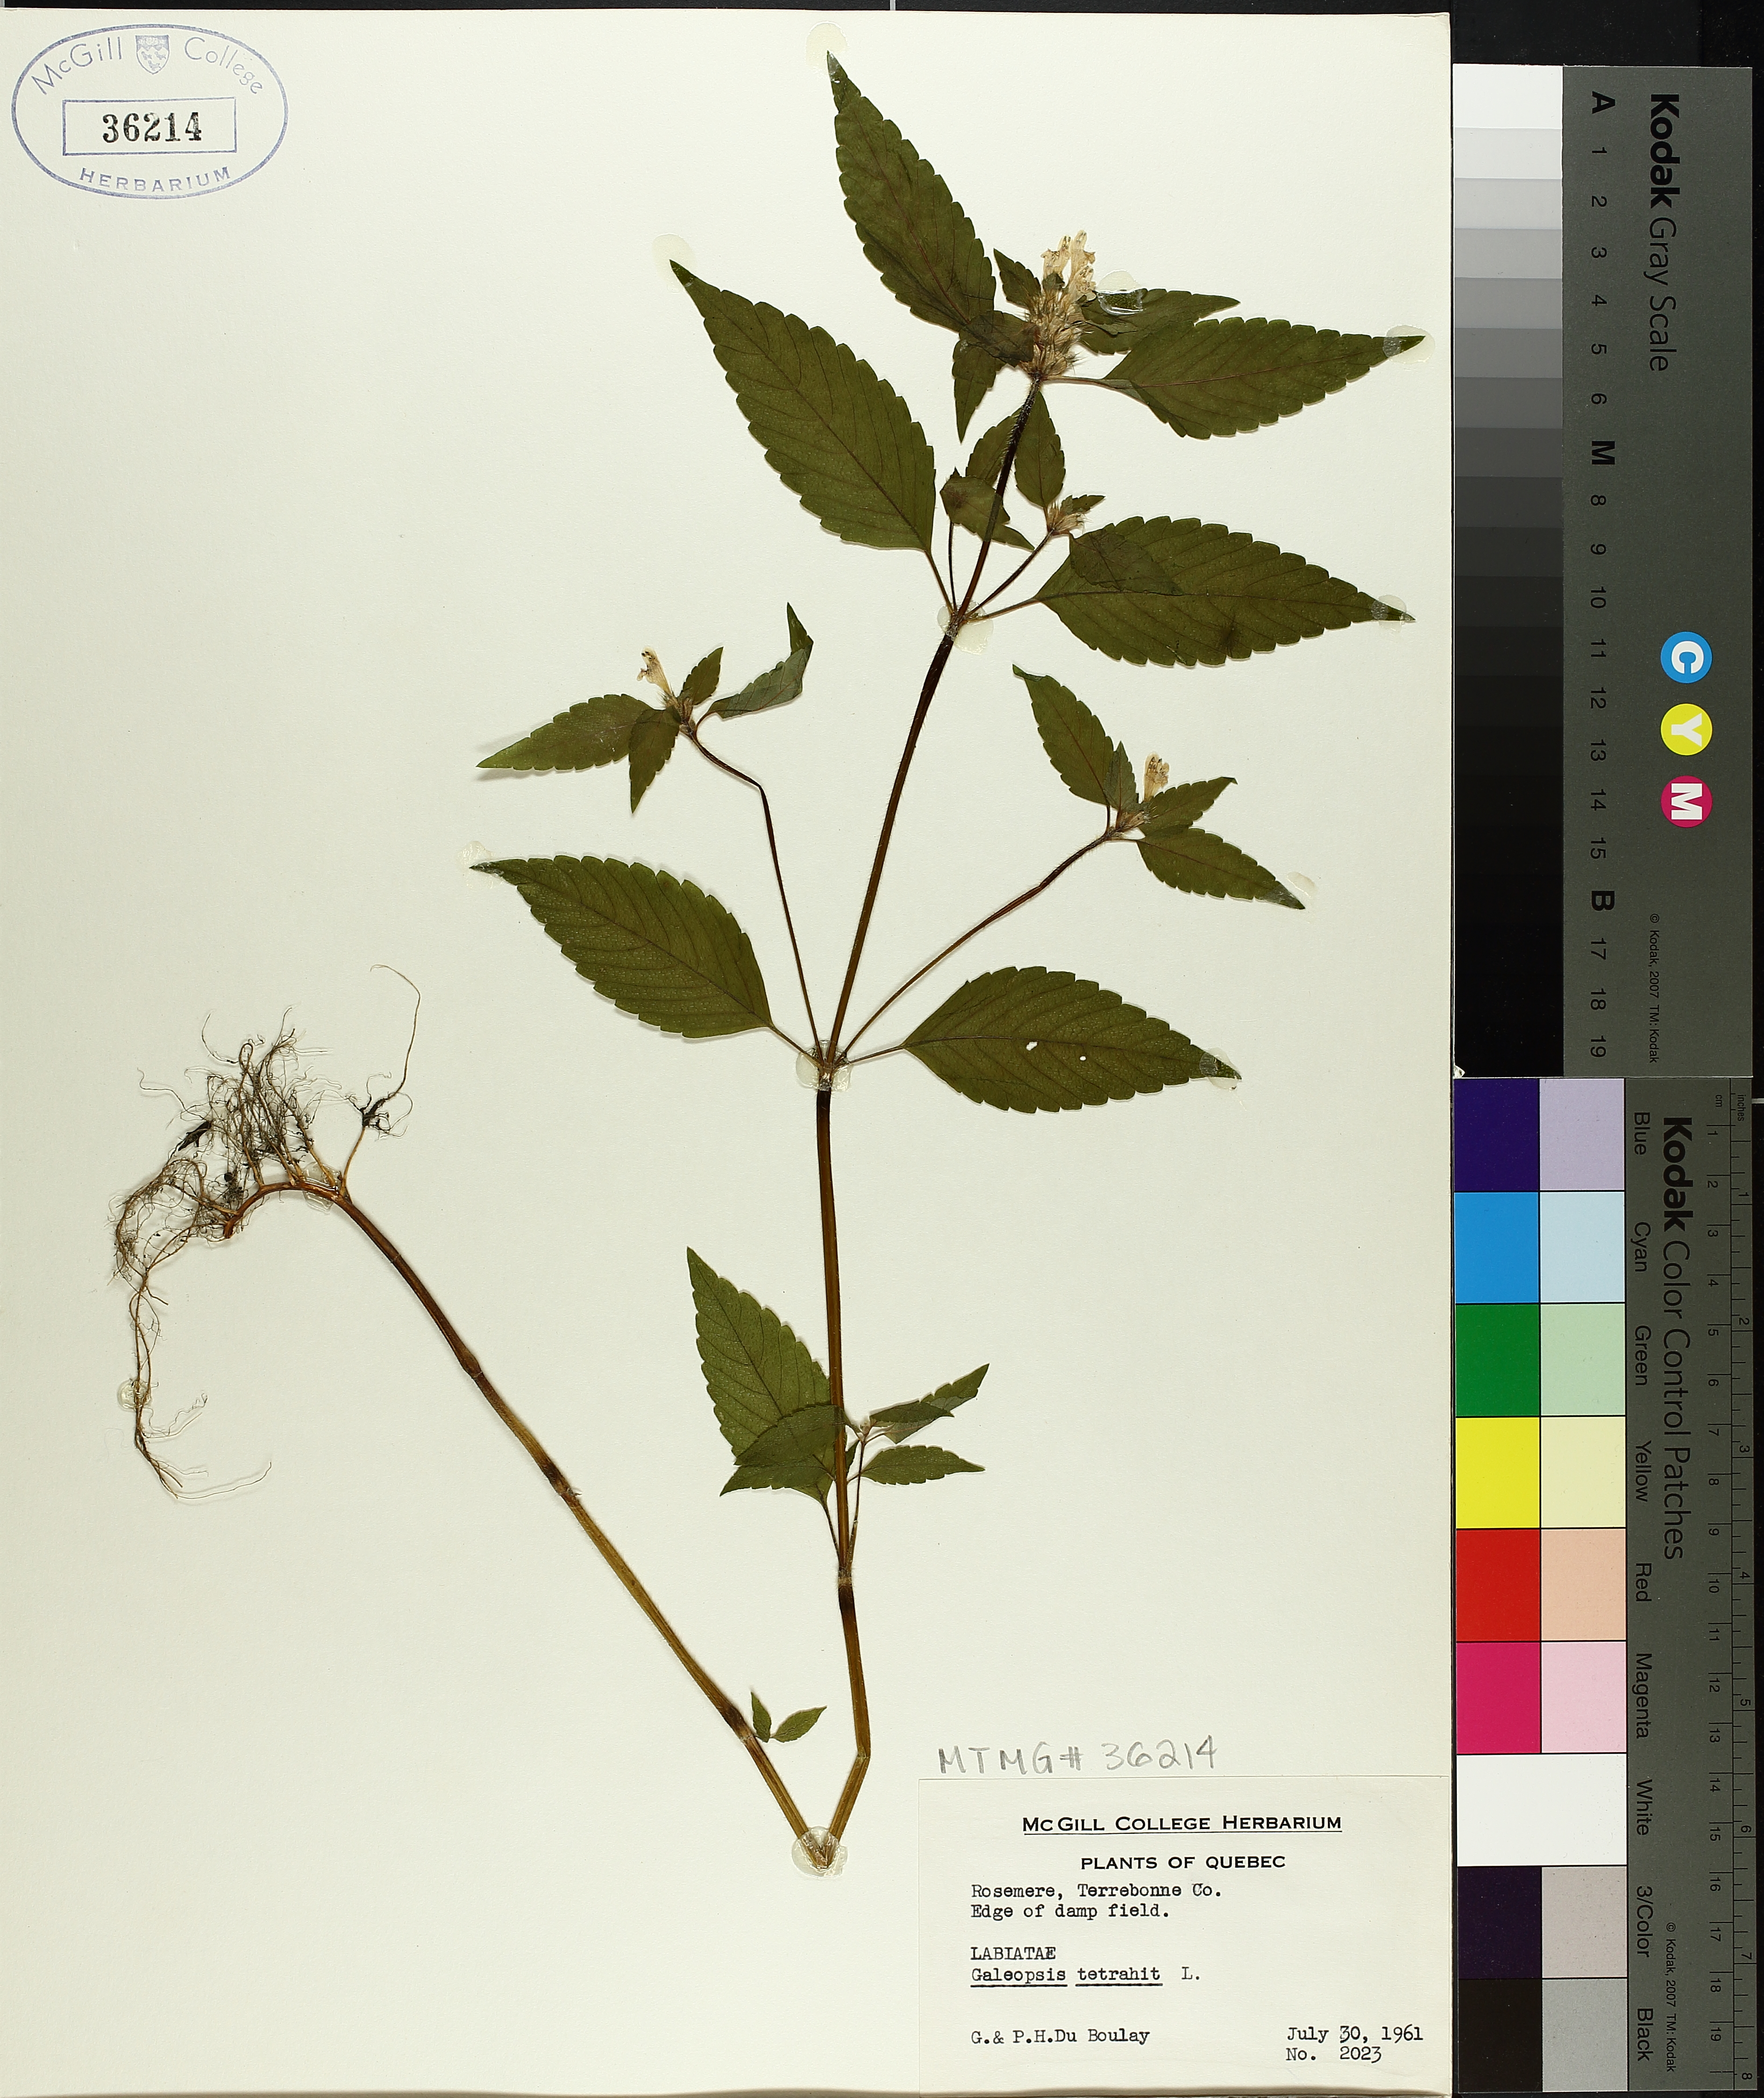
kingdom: Plantae
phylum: Tracheophyta
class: Magnoliopsida
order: Lamiales
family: Lamiaceae
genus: Galeopsis
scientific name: Galeopsis tetrahit
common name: Common hemp-nettle
